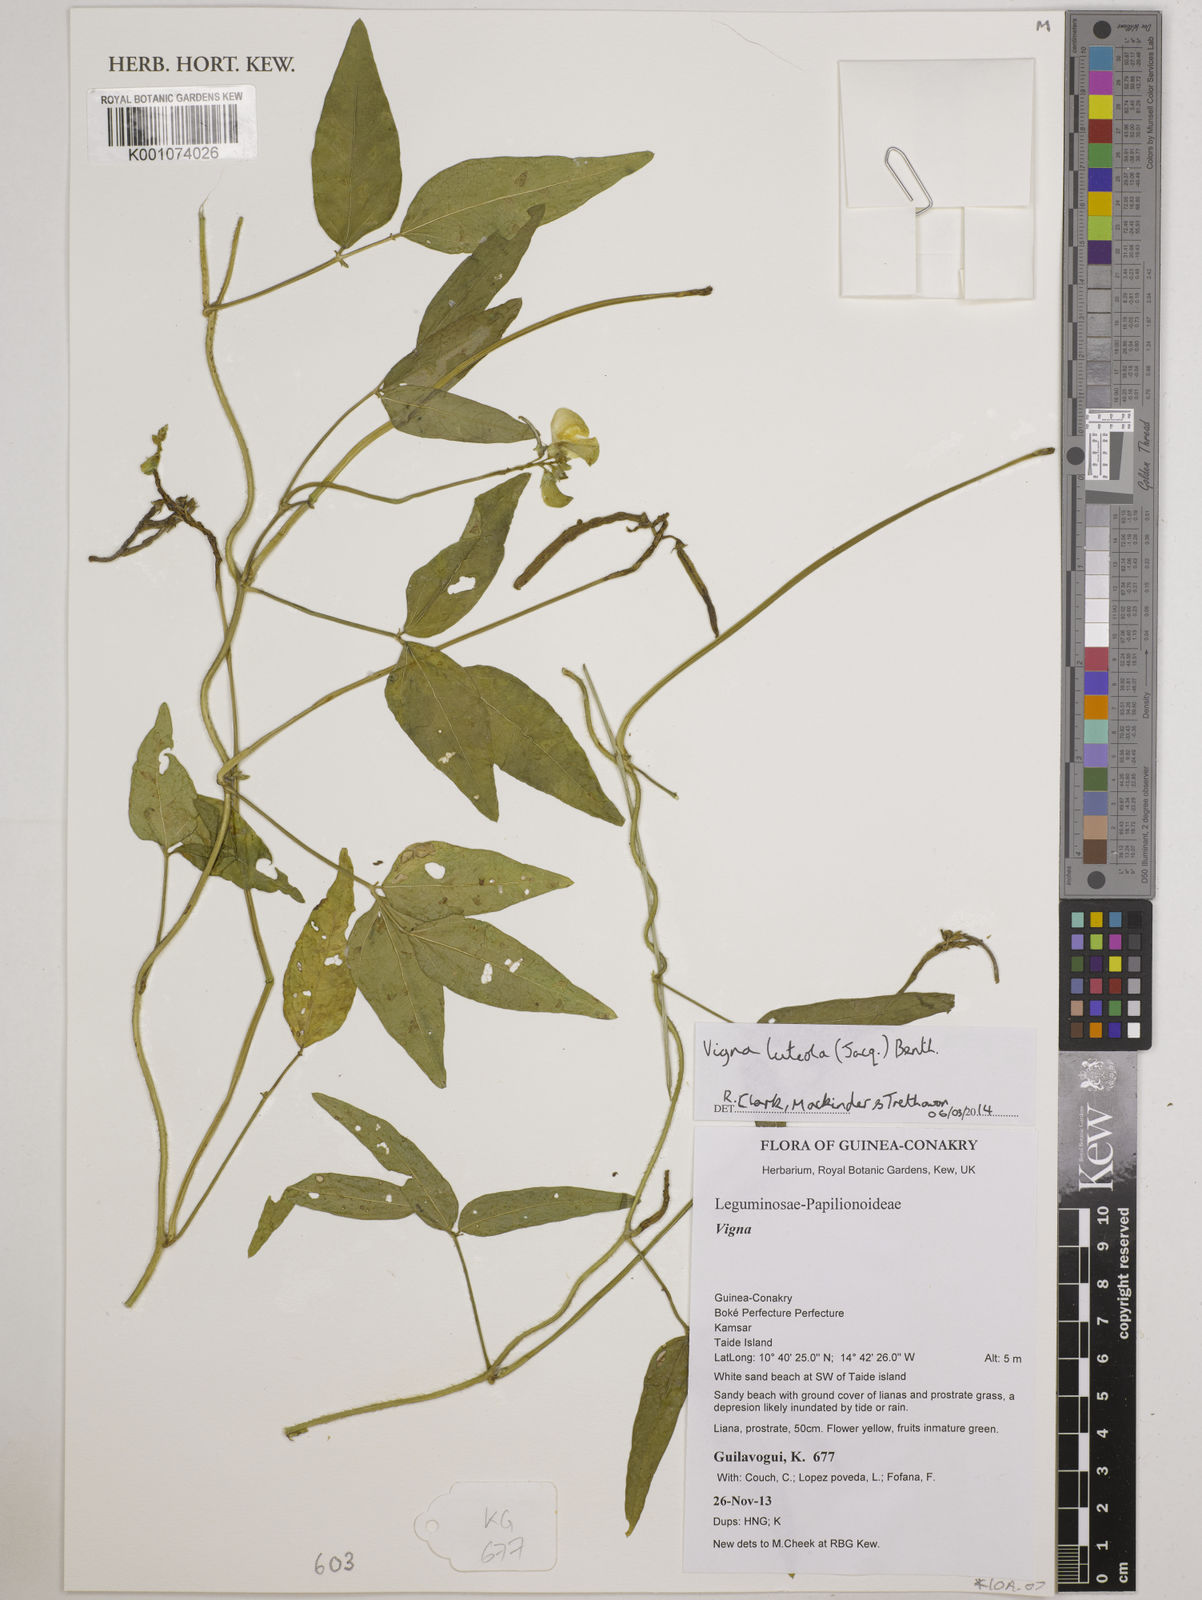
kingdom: Plantae
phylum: Tracheophyta
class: Magnoliopsida
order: Fabales
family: Fabaceae
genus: Vigna
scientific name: Vigna luteola
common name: Hairypod cowpea
